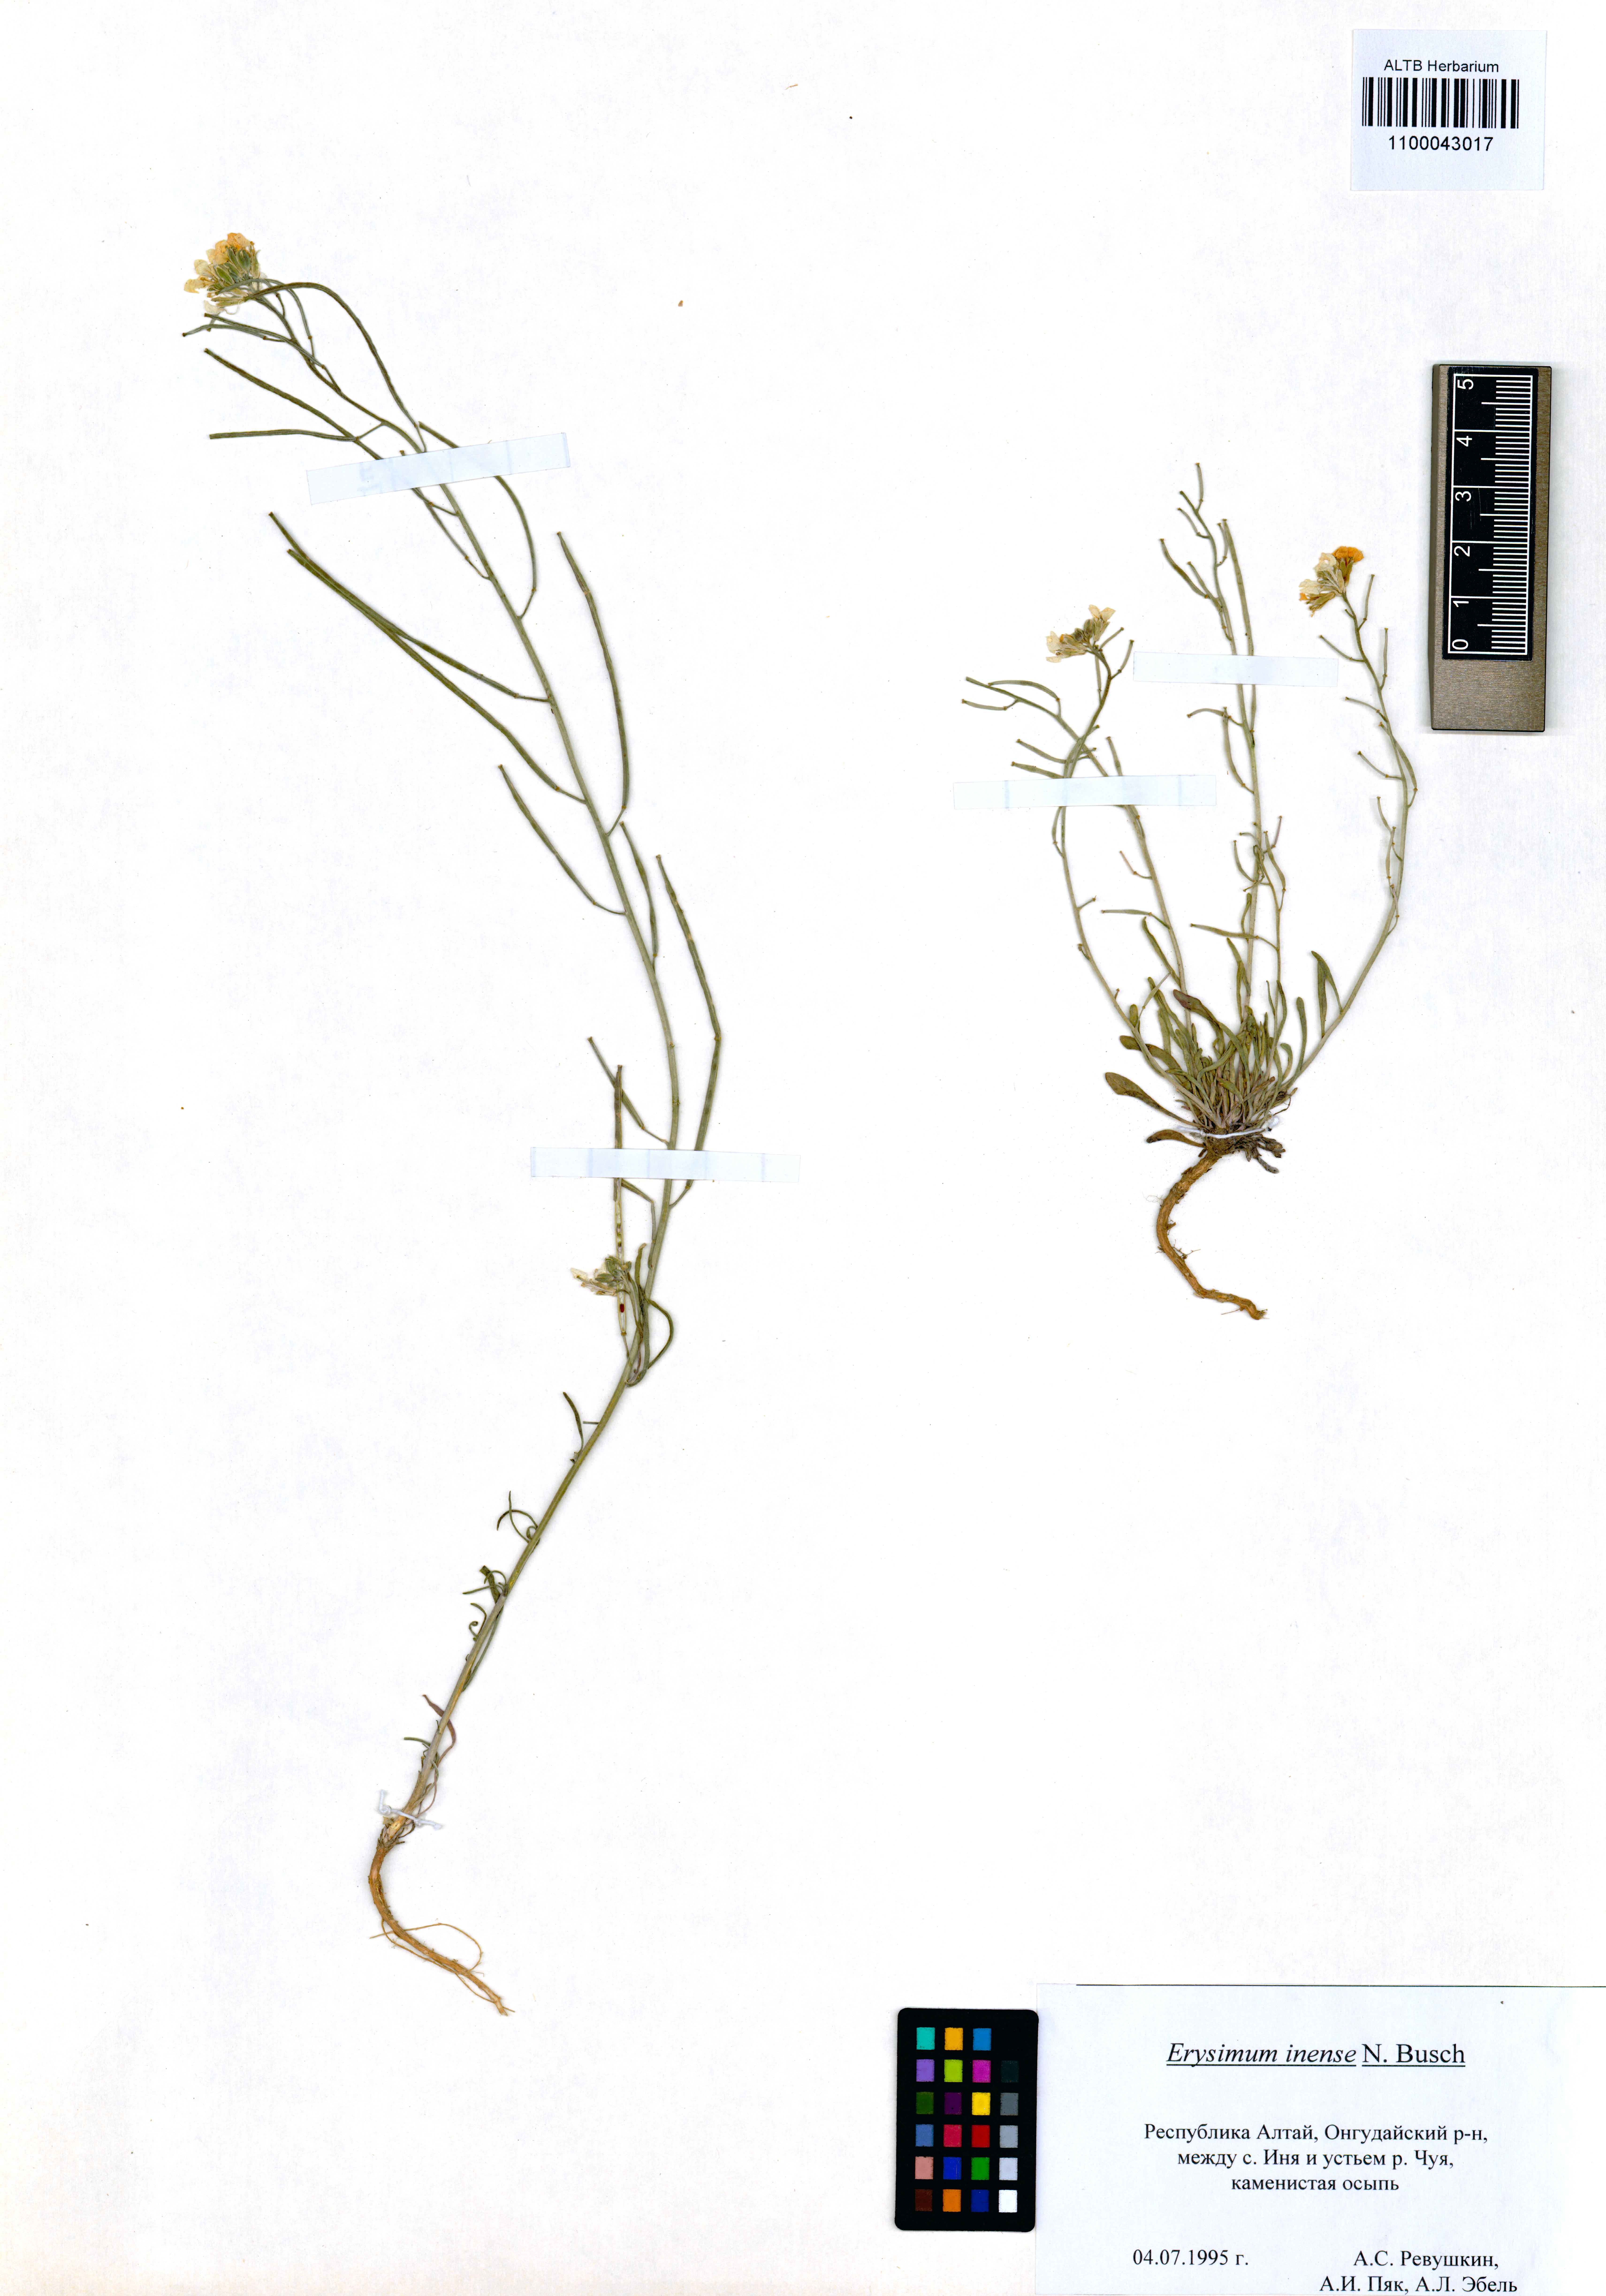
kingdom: Plantae
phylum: Tracheophyta
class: Magnoliopsida
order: Brassicales
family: Brassicaceae
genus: Erysimum
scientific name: Erysimum inense
